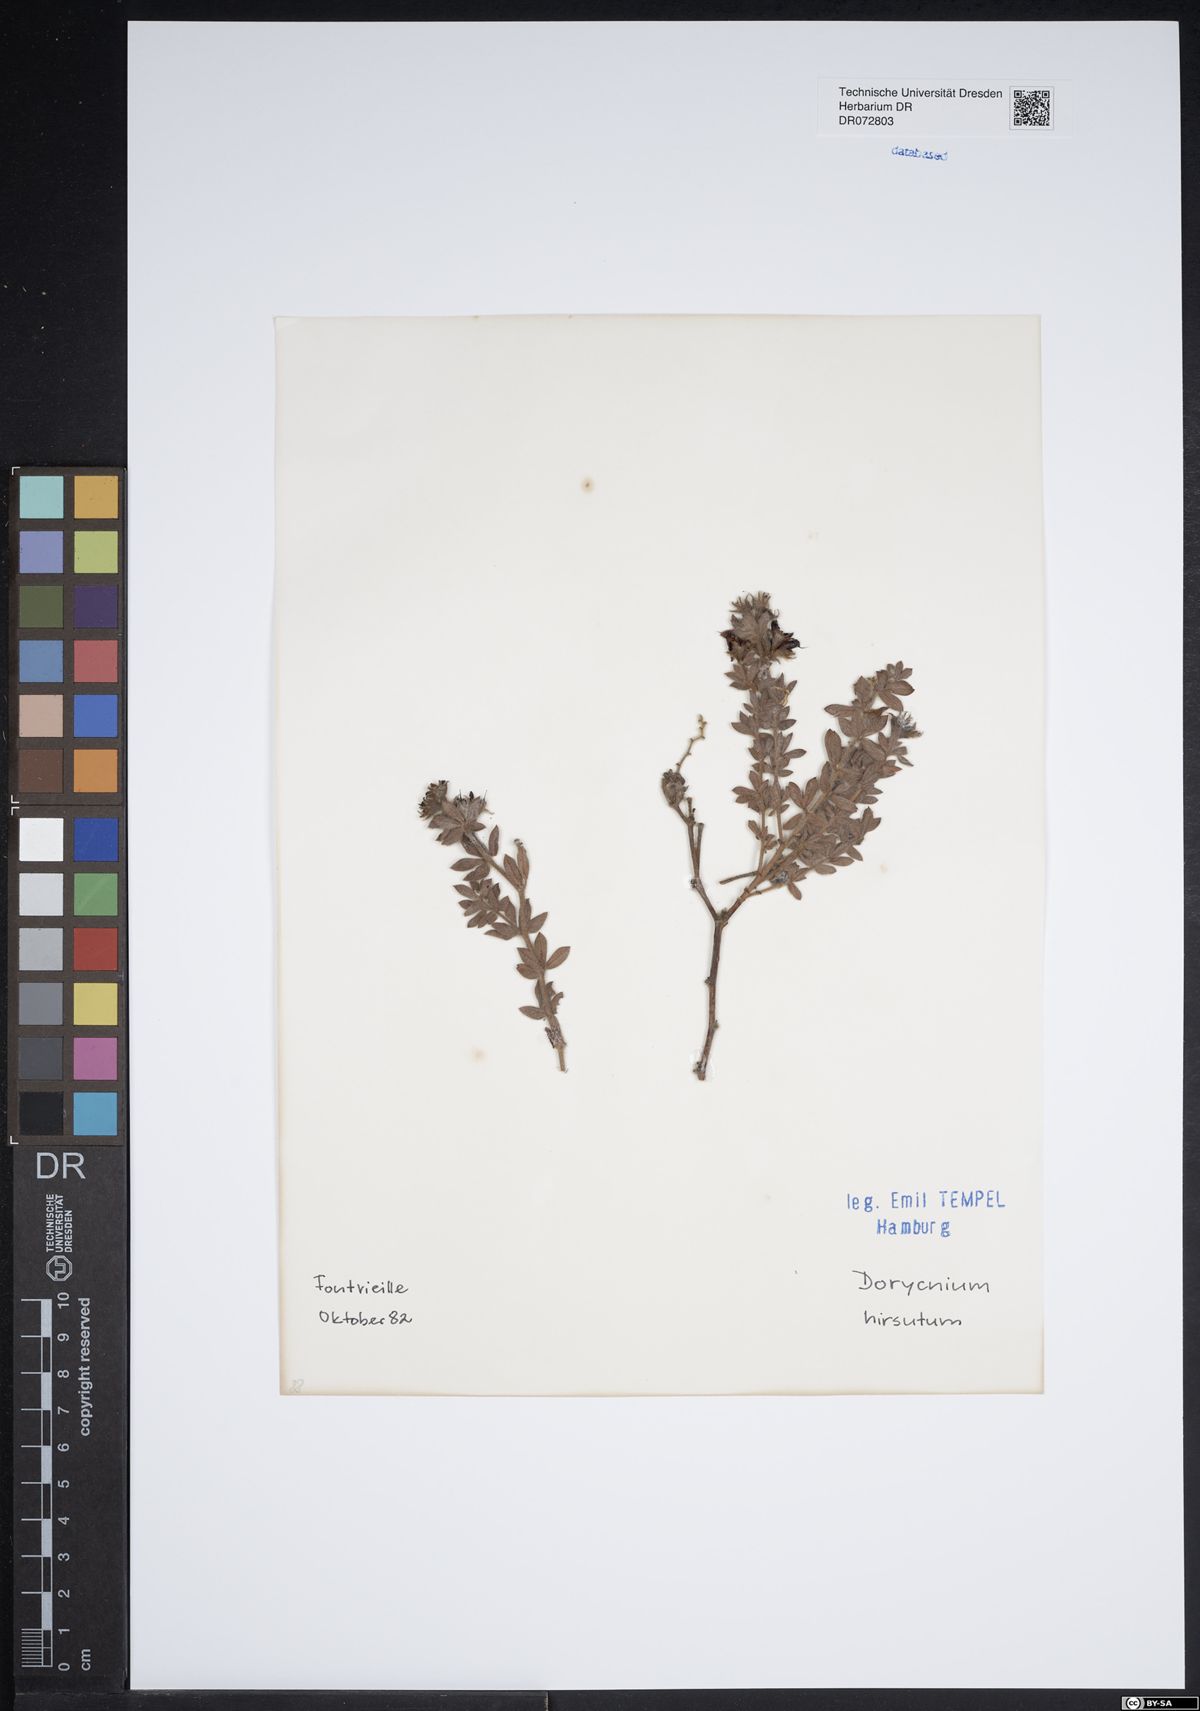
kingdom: Plantae
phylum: Tracheophyta
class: Magnoliopsida
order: Asterales
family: Asteraceae
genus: Doronicum
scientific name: Doronicum clusii
